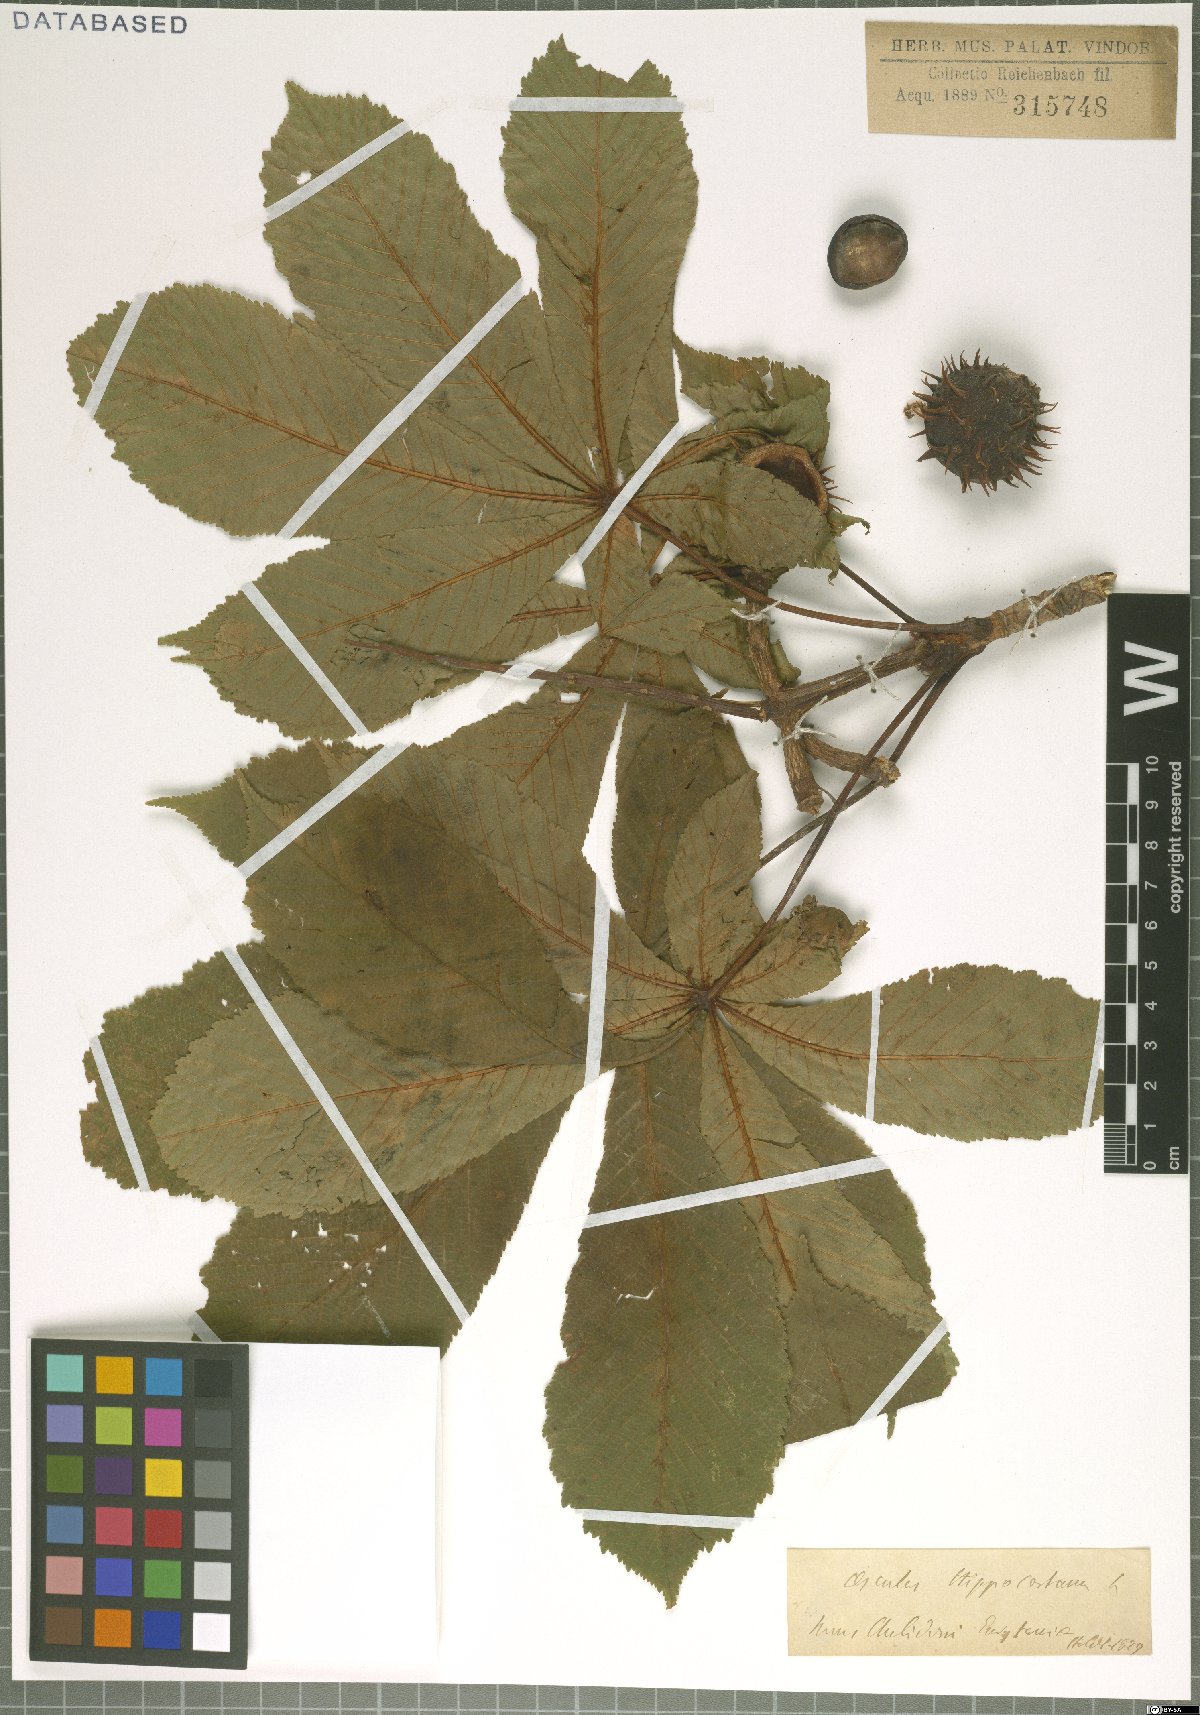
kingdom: Plantae
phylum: Tracheophyta
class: Magnoliopsida
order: Sapindales
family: Sapindaceae
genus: Aesculus
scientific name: Aesculus hippocastanum
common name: Horse-chestnut
